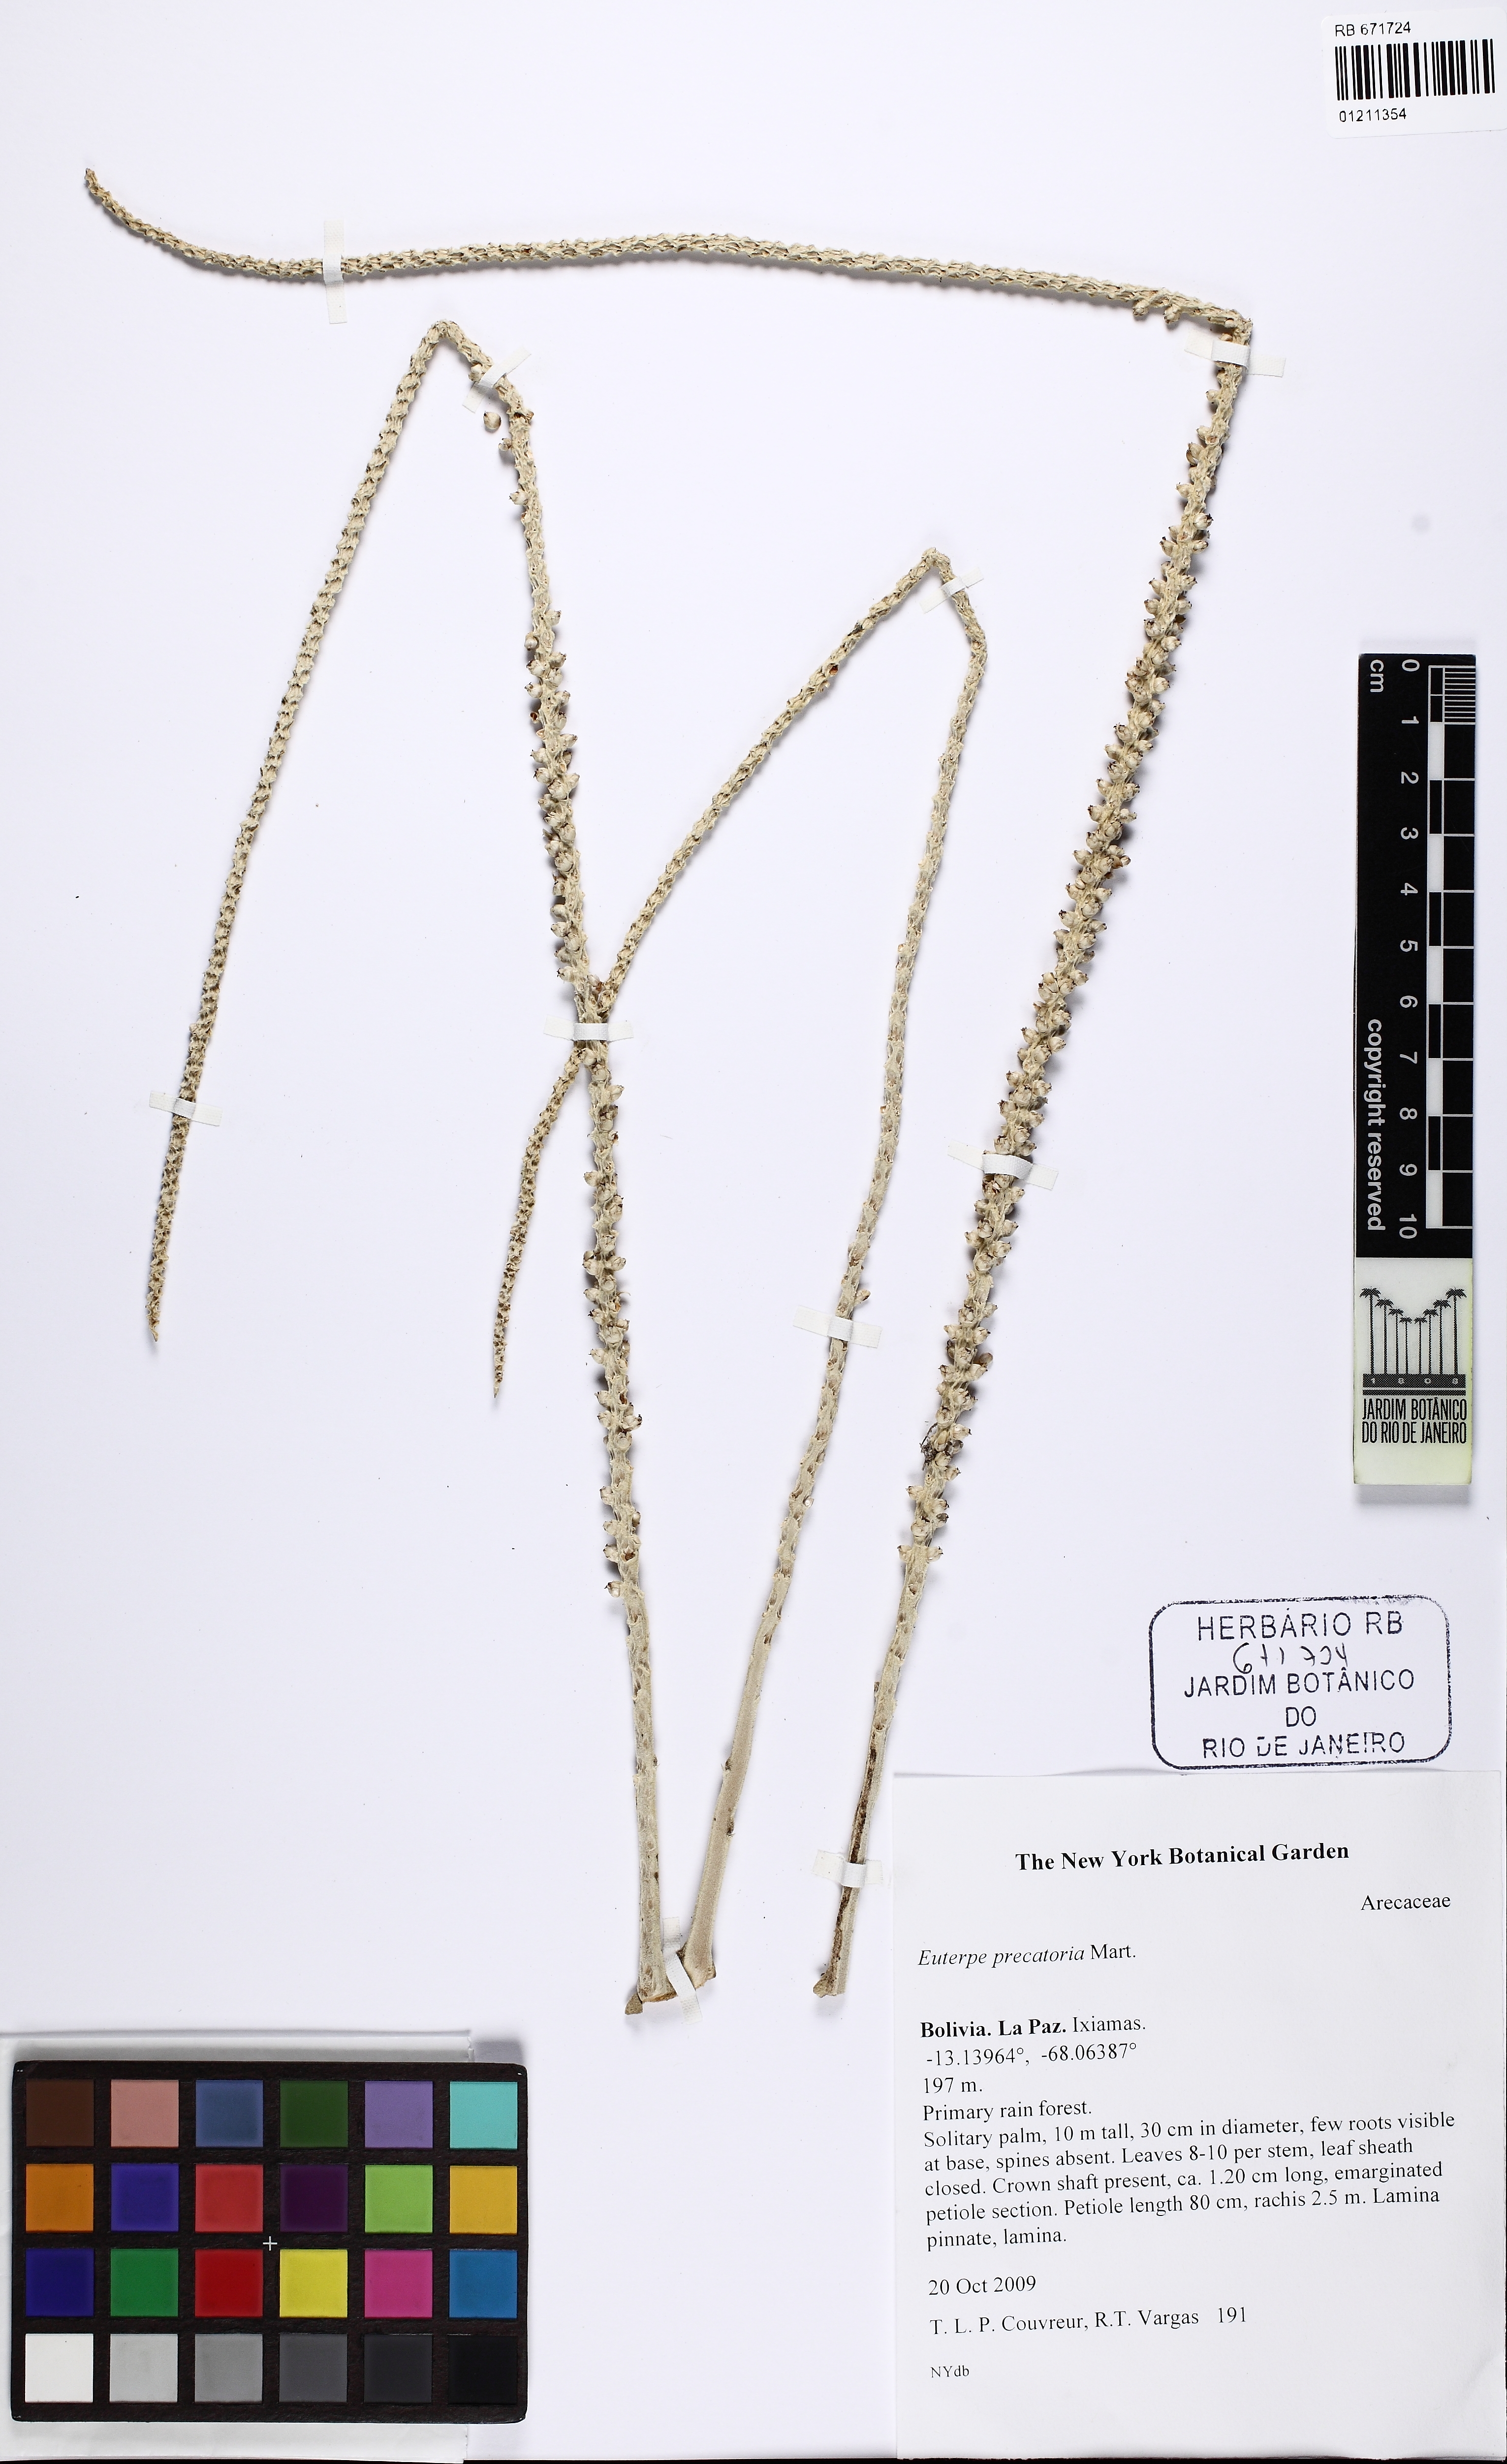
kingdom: Plantae
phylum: Tracheophyta
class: Liliopsida
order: Arecales
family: Arecaceae
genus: Euterpe
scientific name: Euterpe precatoria
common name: Mountain-cabbage
